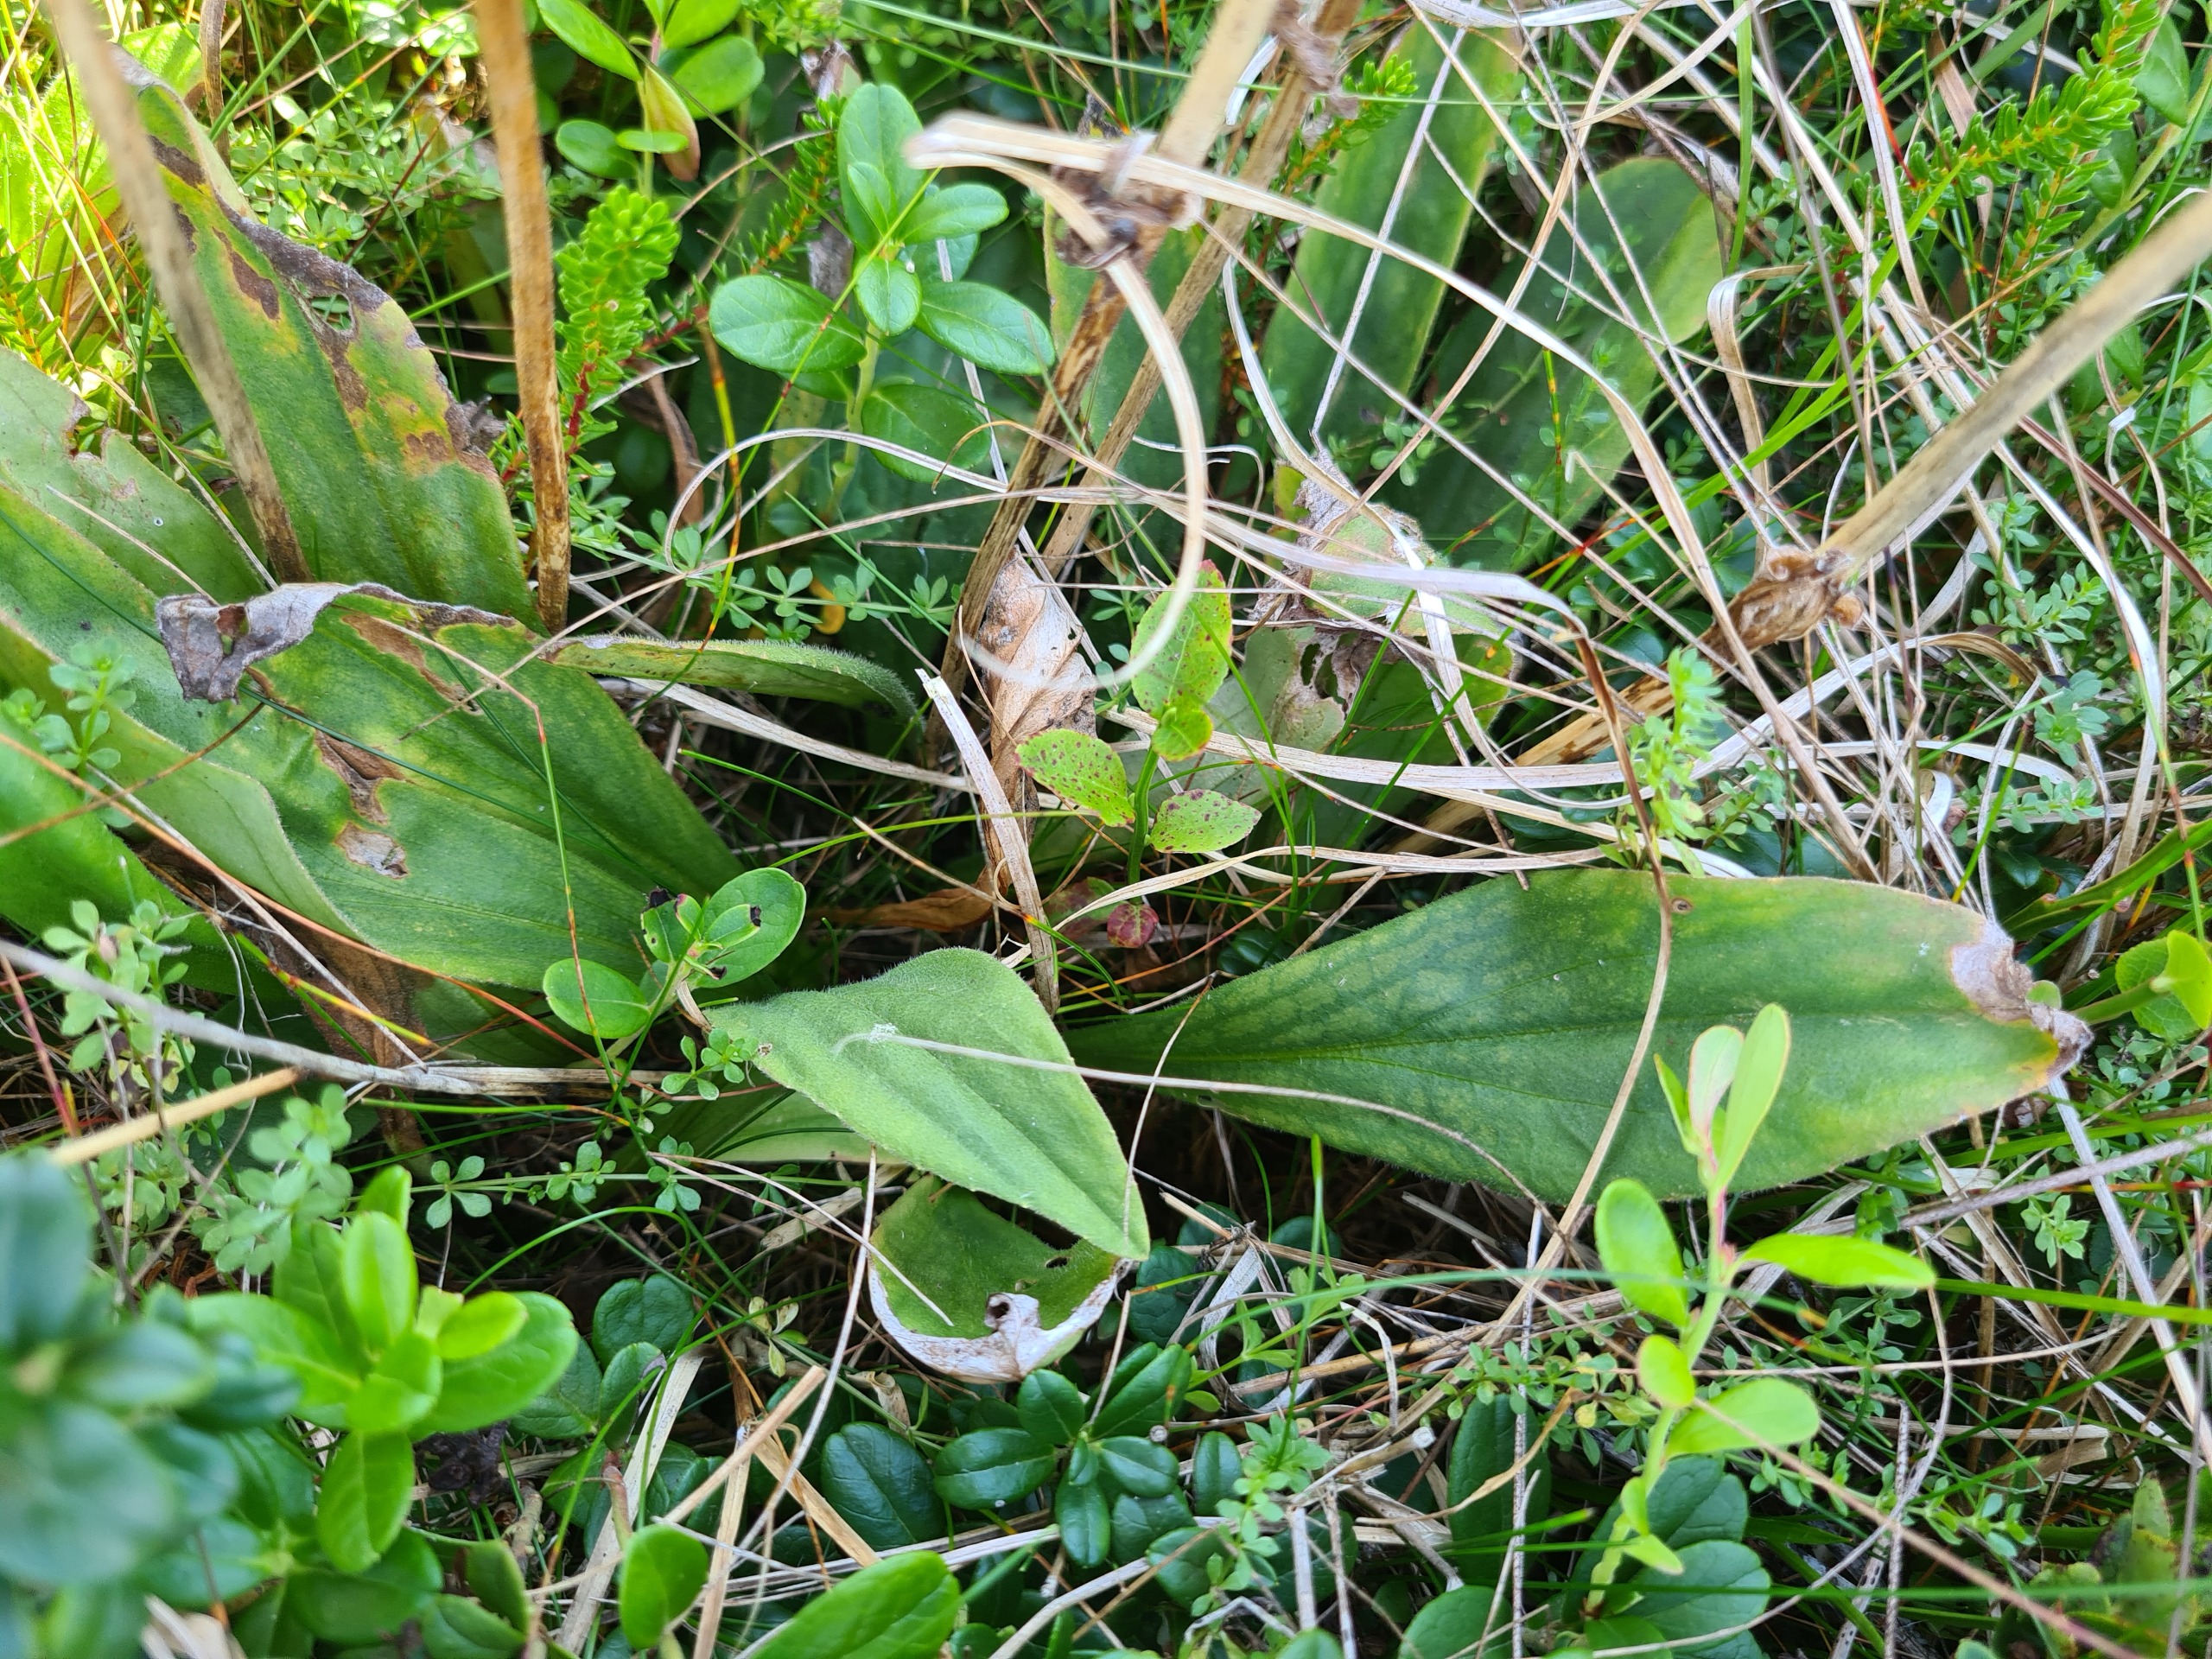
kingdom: Plantae
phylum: Tracheophyta
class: Magnoliopsida
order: Asterales
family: Asteraceae
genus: Arnica
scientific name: Arnica montana
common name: Guldblomme
